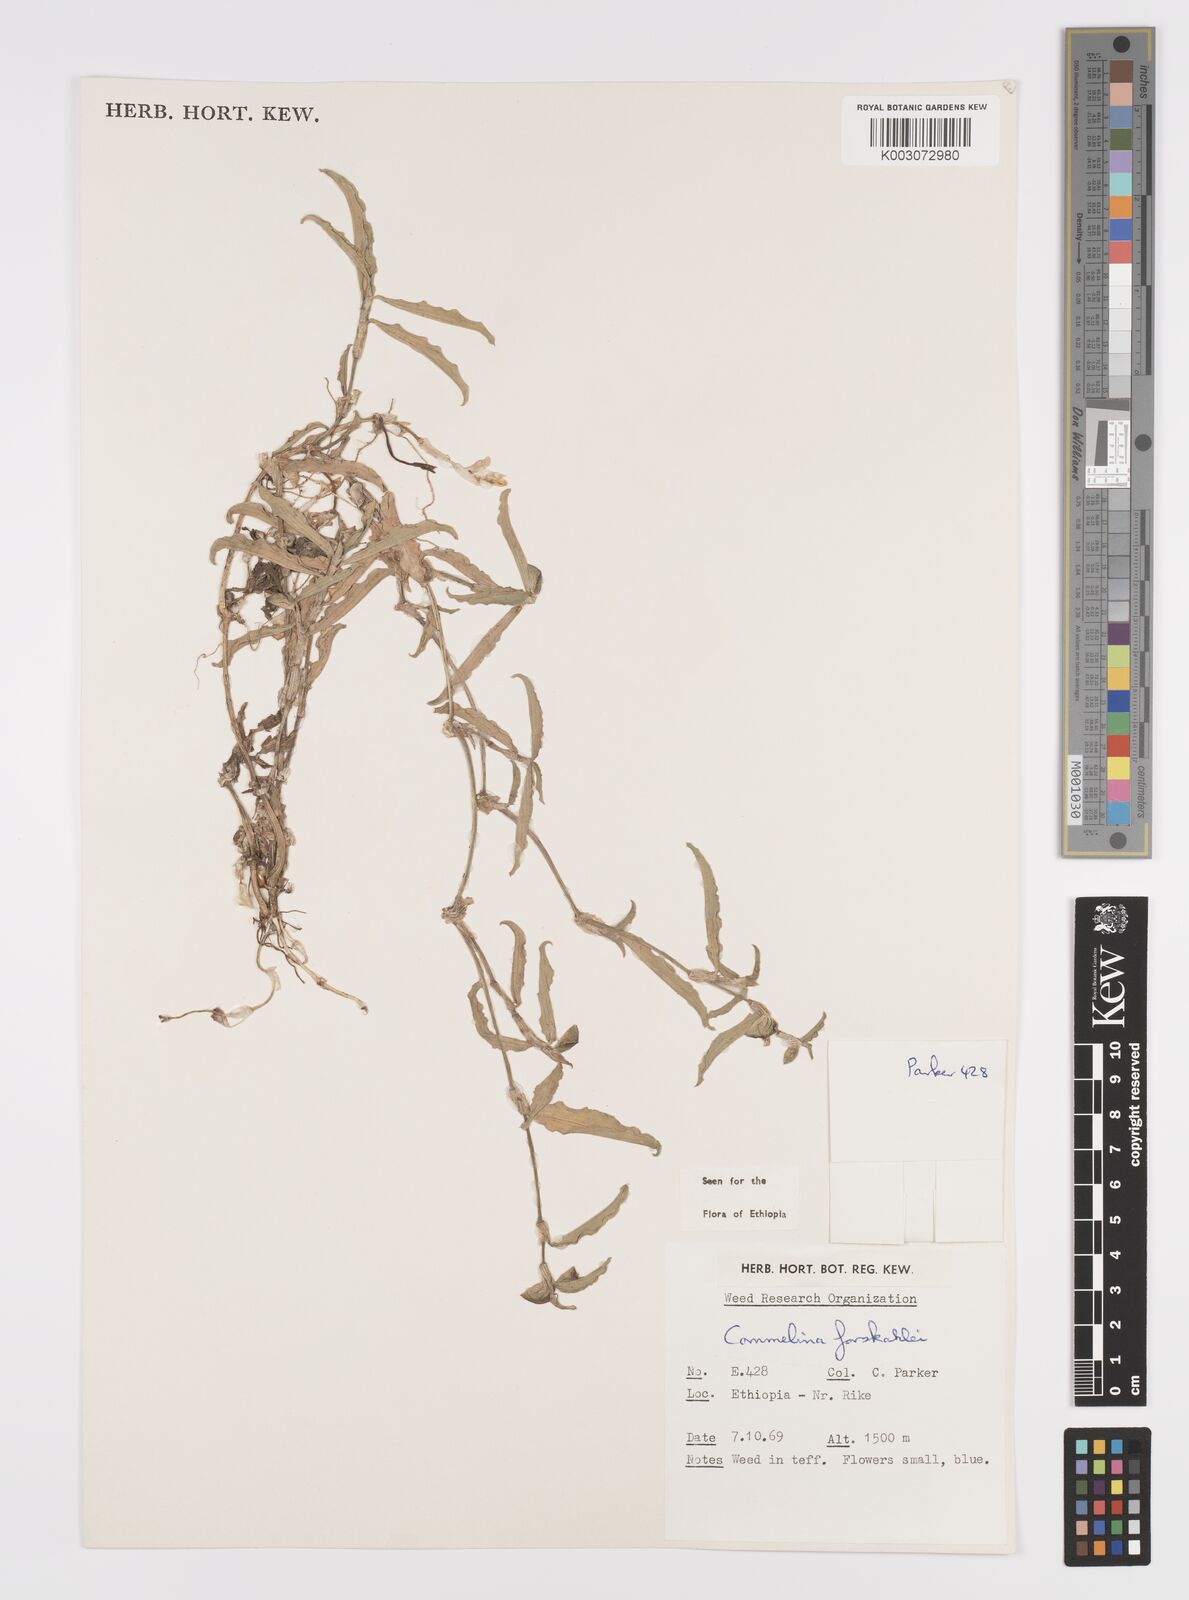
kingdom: Plantae
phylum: Tracheophyta
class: Liliopsida
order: Commelinales
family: Commelinaceae
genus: Commelina
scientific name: Commelina forskaolii
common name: Rat's ear
